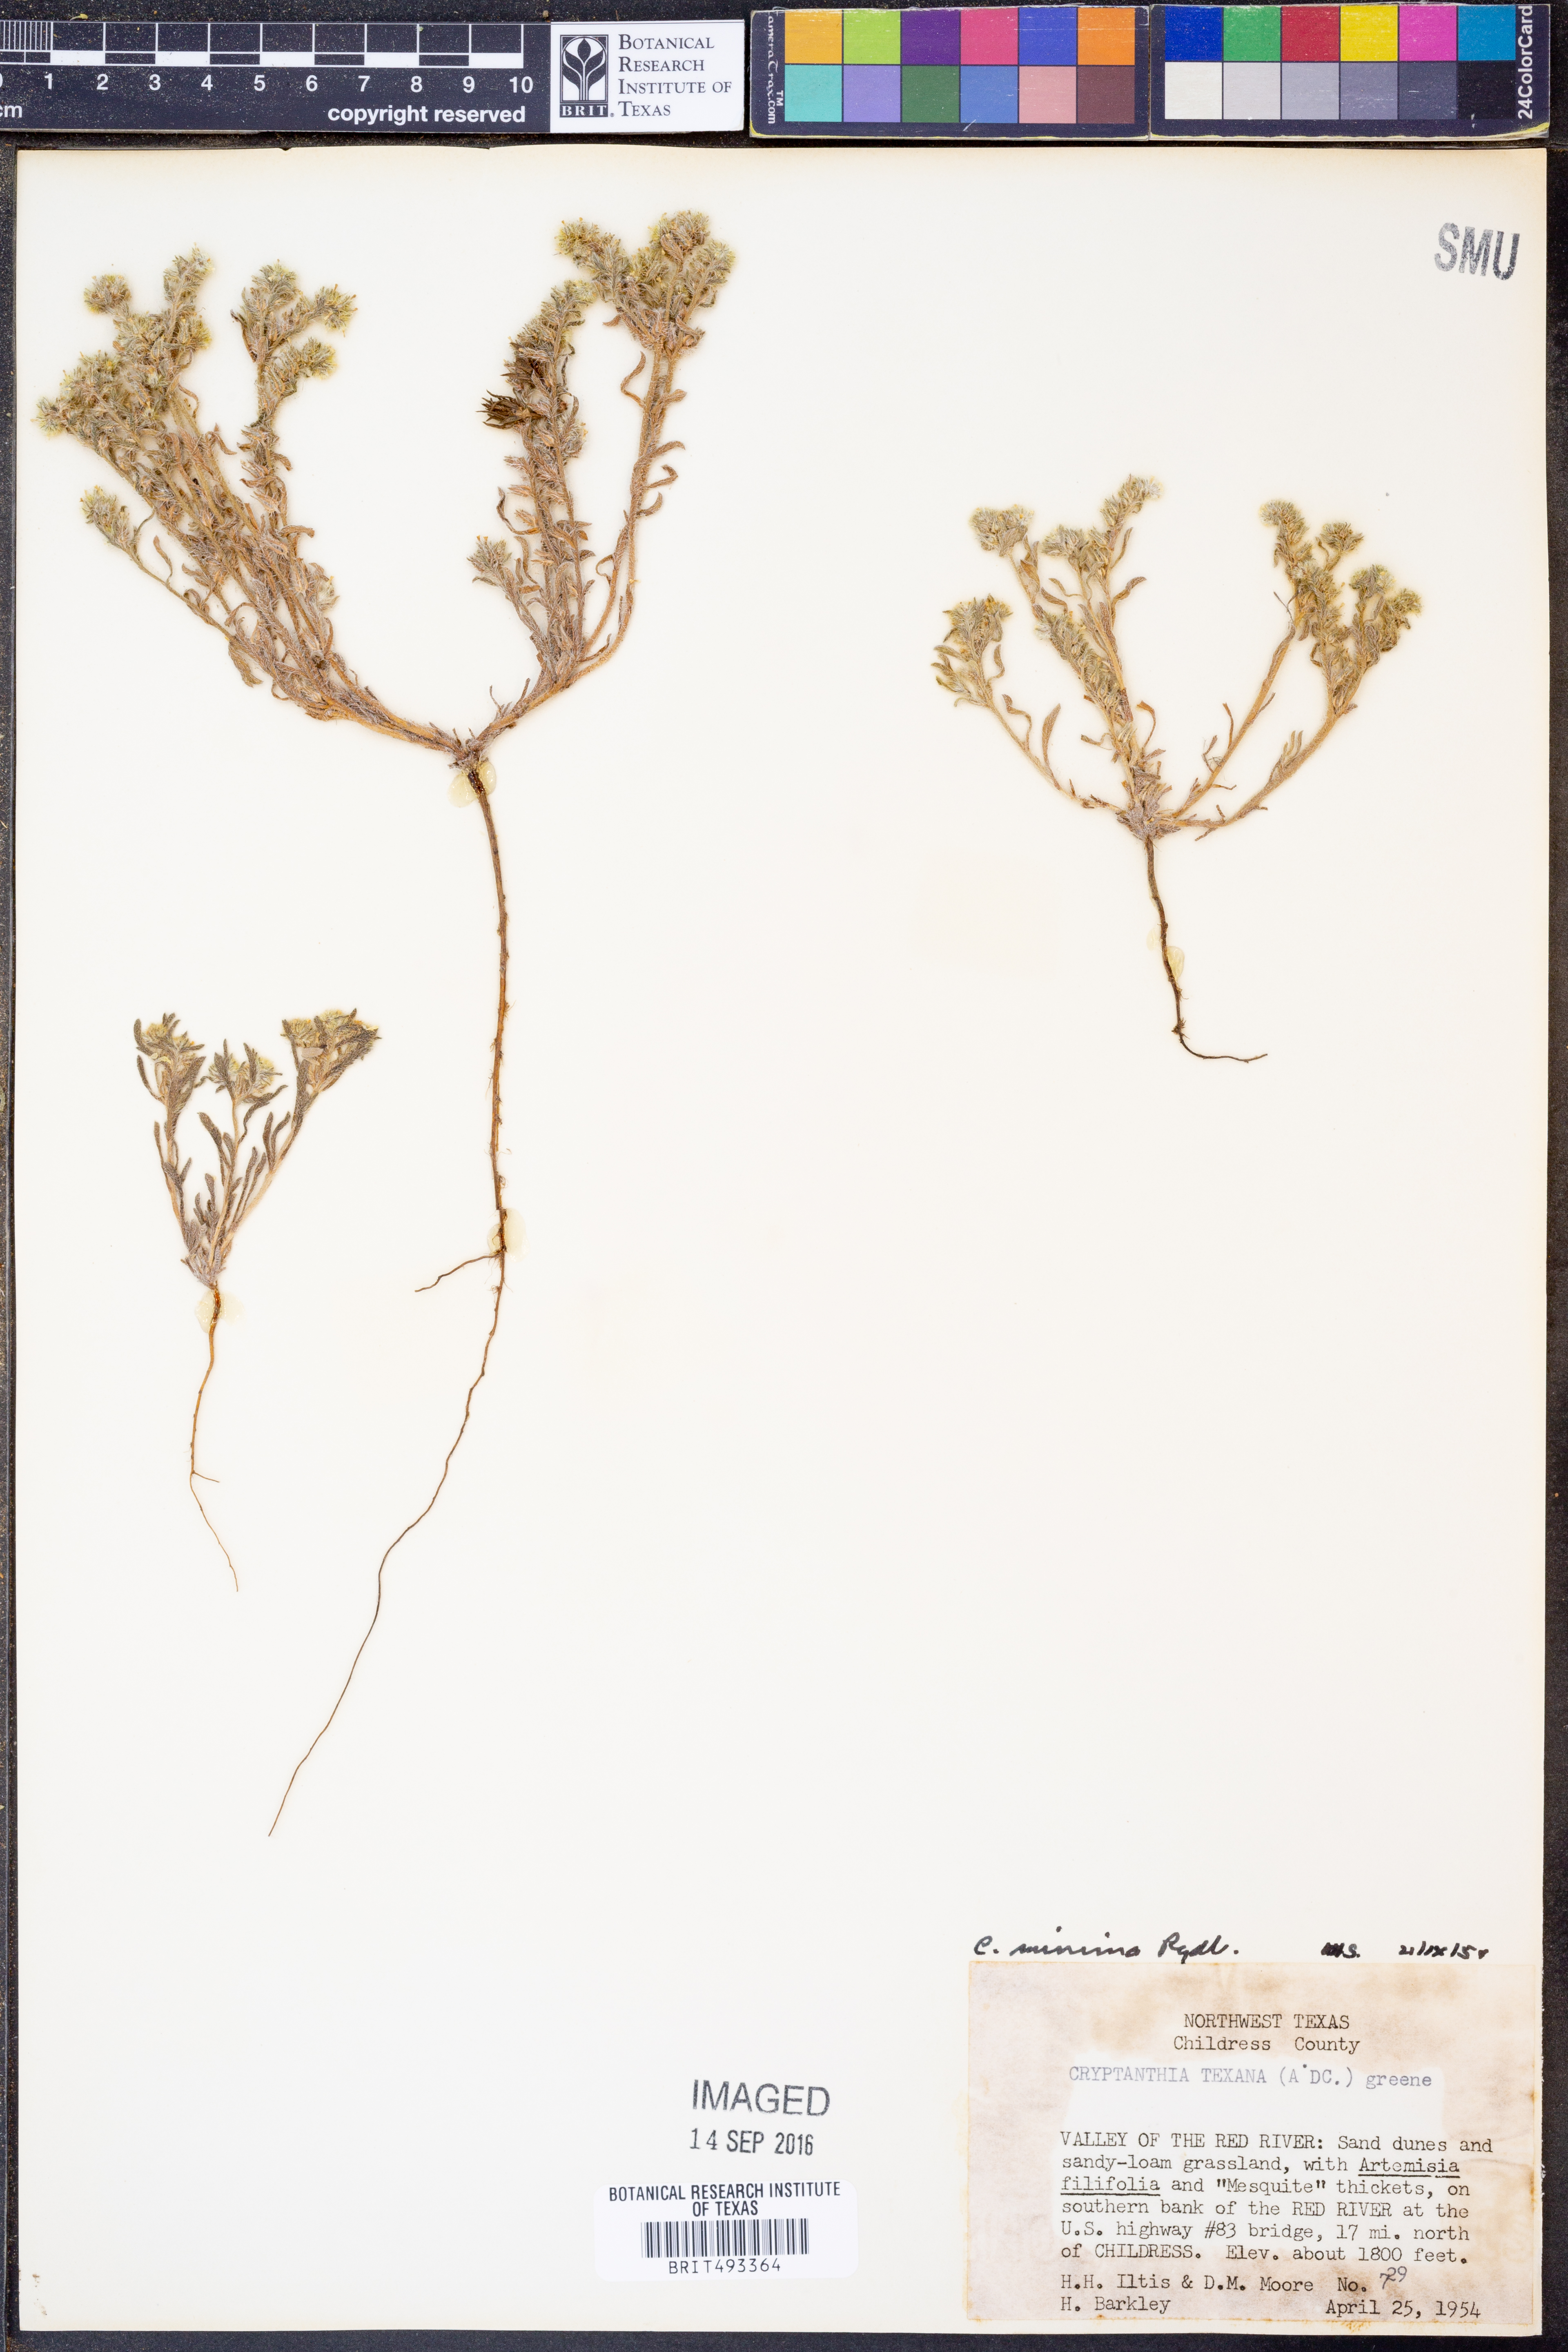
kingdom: Plantae
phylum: Tracheophyta
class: Magnoliopsida
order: Boraginales
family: Boraginaceae
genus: Cryptantha
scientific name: Cryptantha minima
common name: Little cat's-eye
